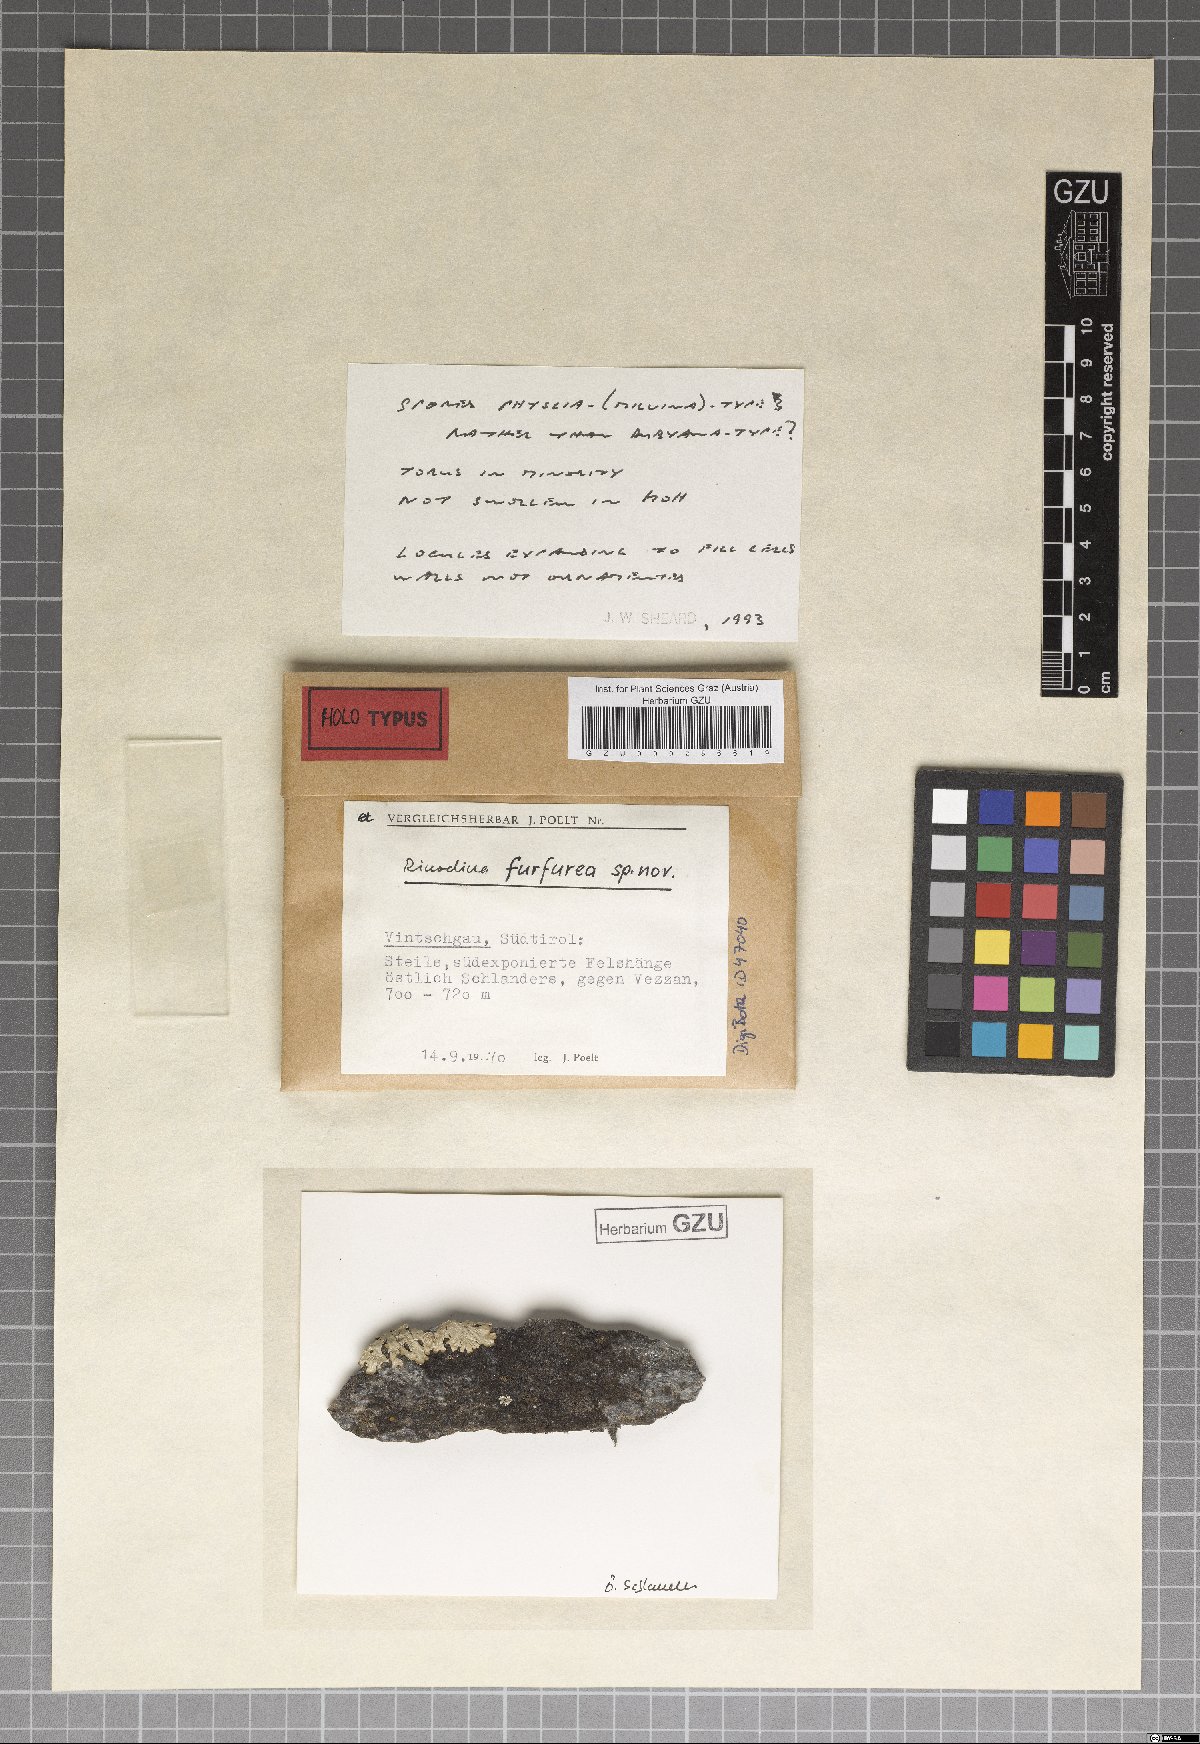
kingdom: Fungi
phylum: Ascomycota
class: Lecanoromycetes
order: Caliciales
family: Physciaceae
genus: Rinodina
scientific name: Rinodina furfuracea
